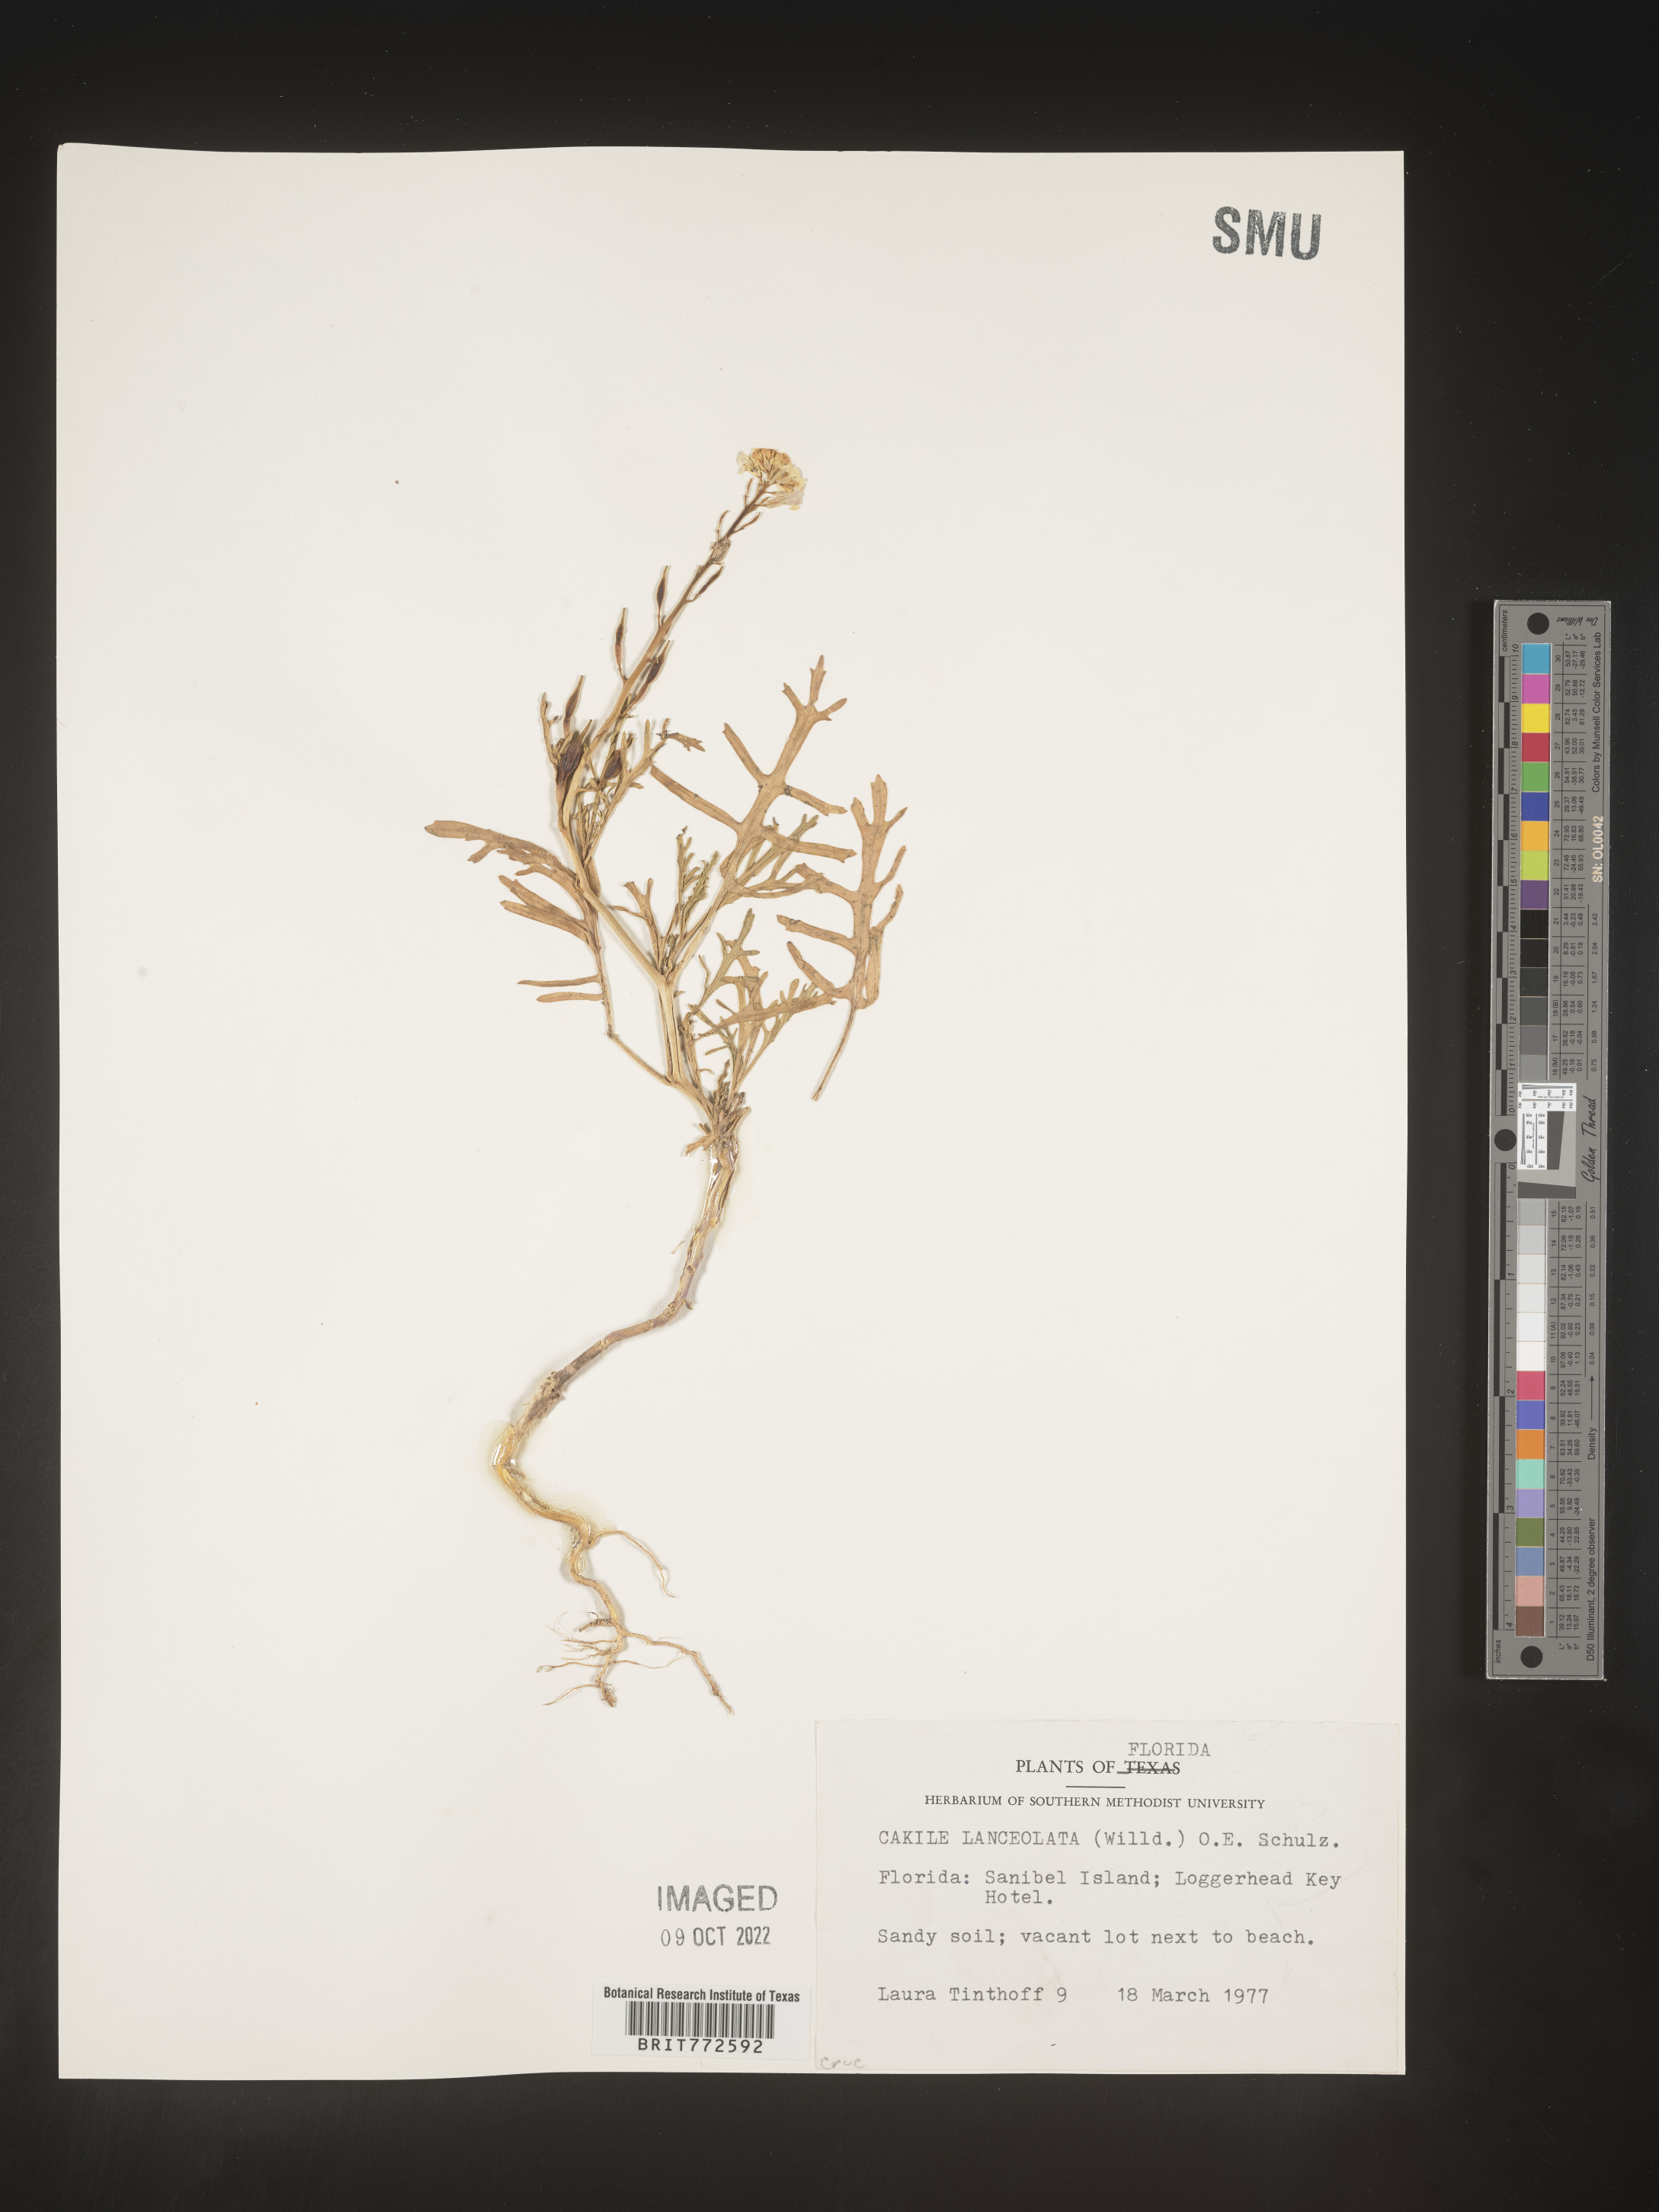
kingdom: Plantae
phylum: Tracheophyta
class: Magnoliopsida
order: Brassicales
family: Brassicaceae
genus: Cakile
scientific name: Cakile lanceolata
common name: Sea rocket
